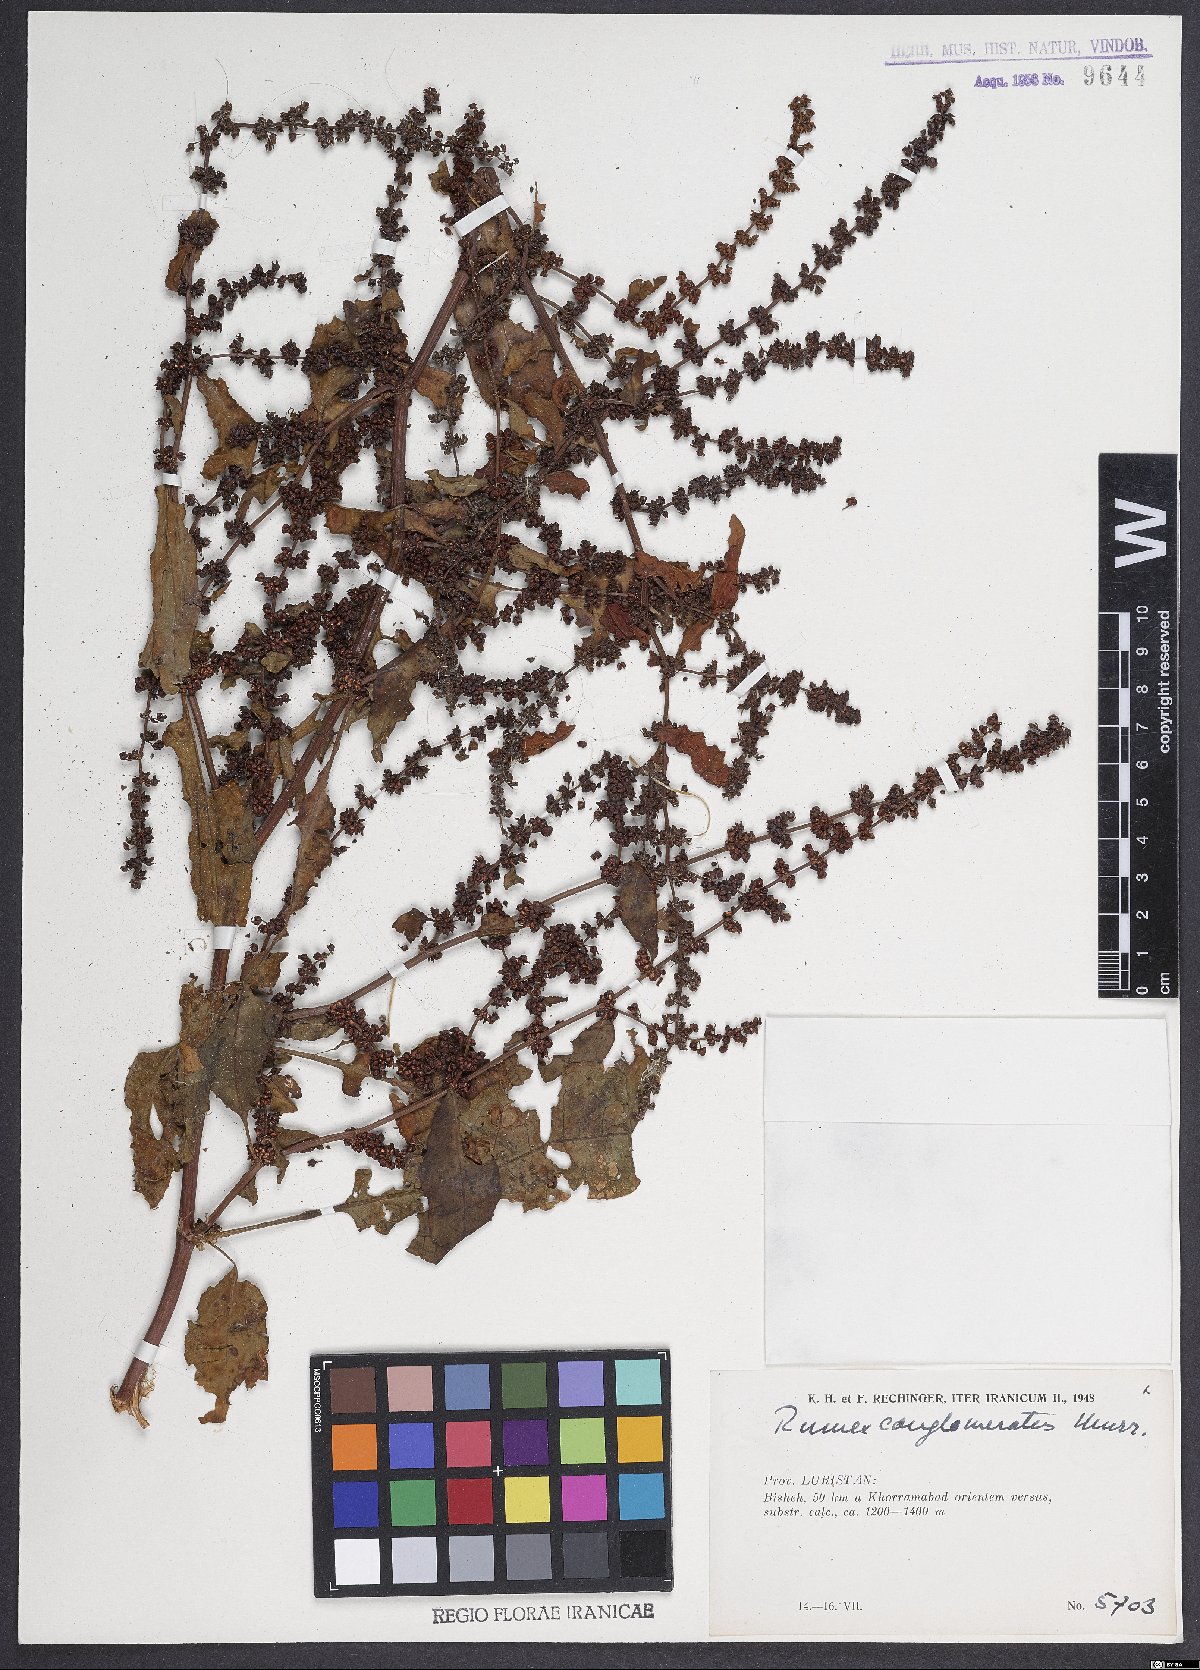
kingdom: Plantae
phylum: Tracheophyta
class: Magnoliopsida
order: Caryophyllales
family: Polygonaceae
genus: Rumex
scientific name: Rumex conglomeratus
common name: Clustered dock
